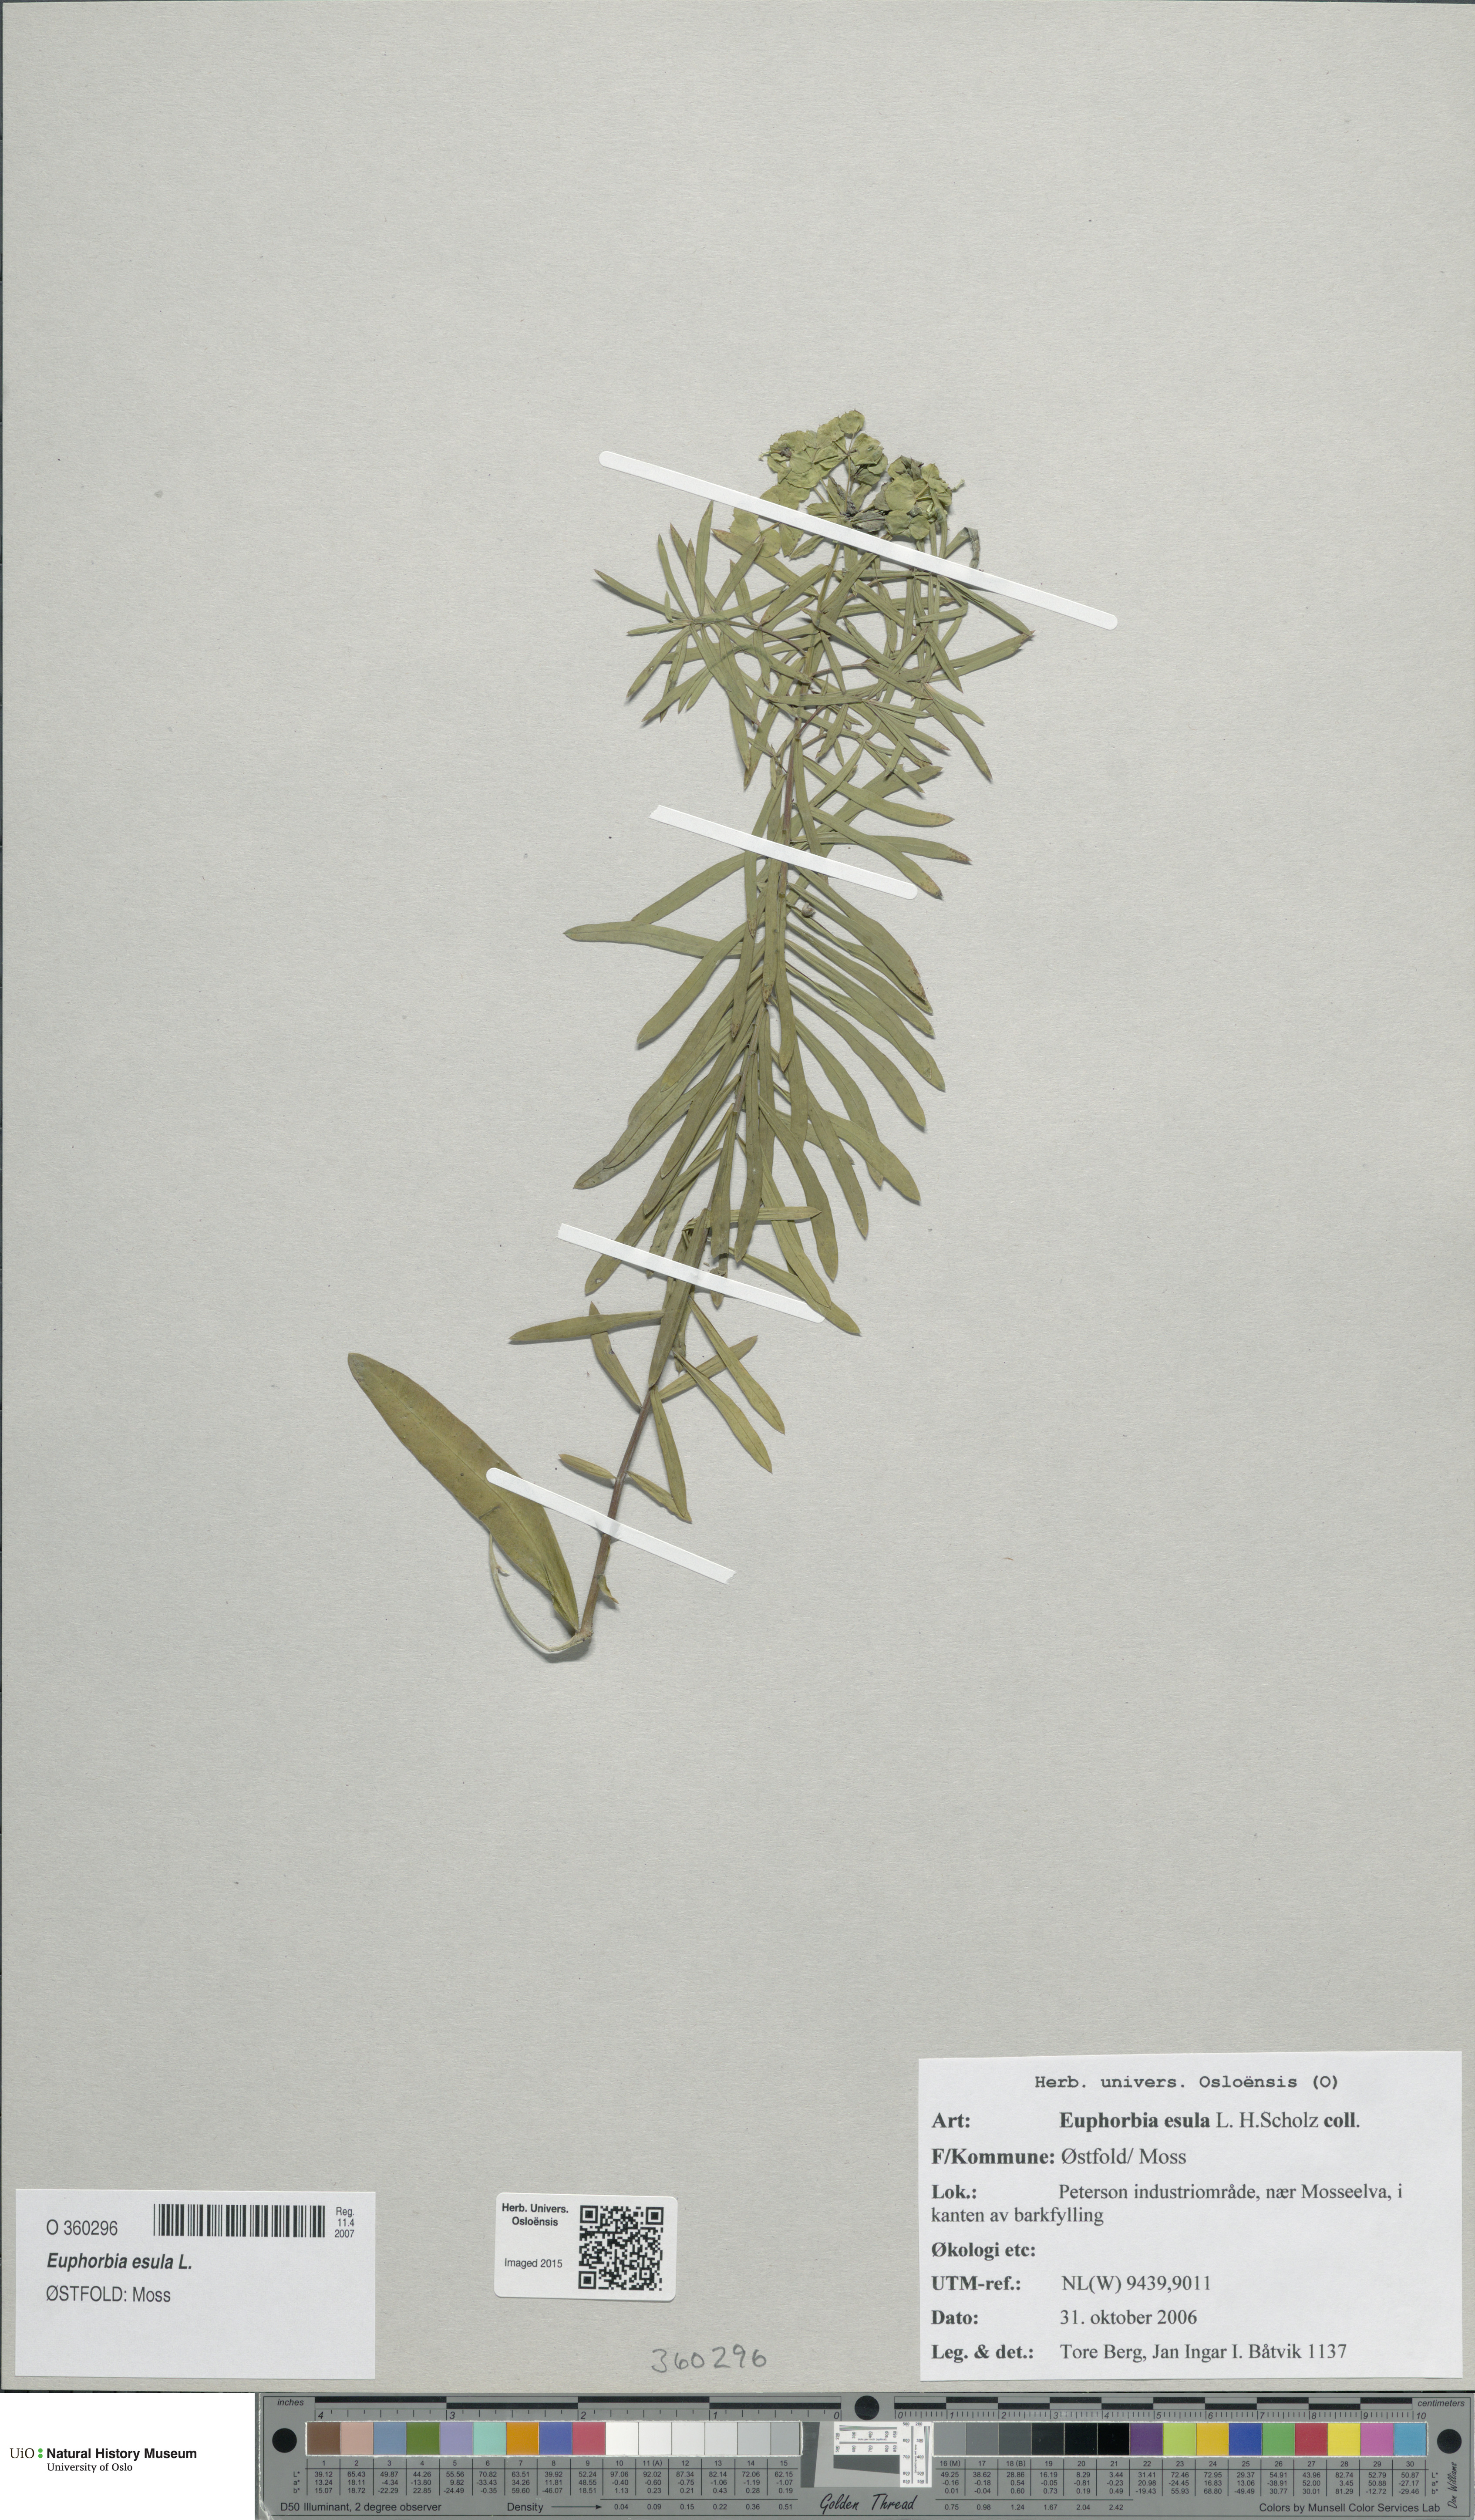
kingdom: Plantae
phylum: Tracheophyta
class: Magnoliopsida
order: Malpighiales
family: Euphorbiaceae
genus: Euphorbia
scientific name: Euphorbia esula
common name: Leafy spurge
